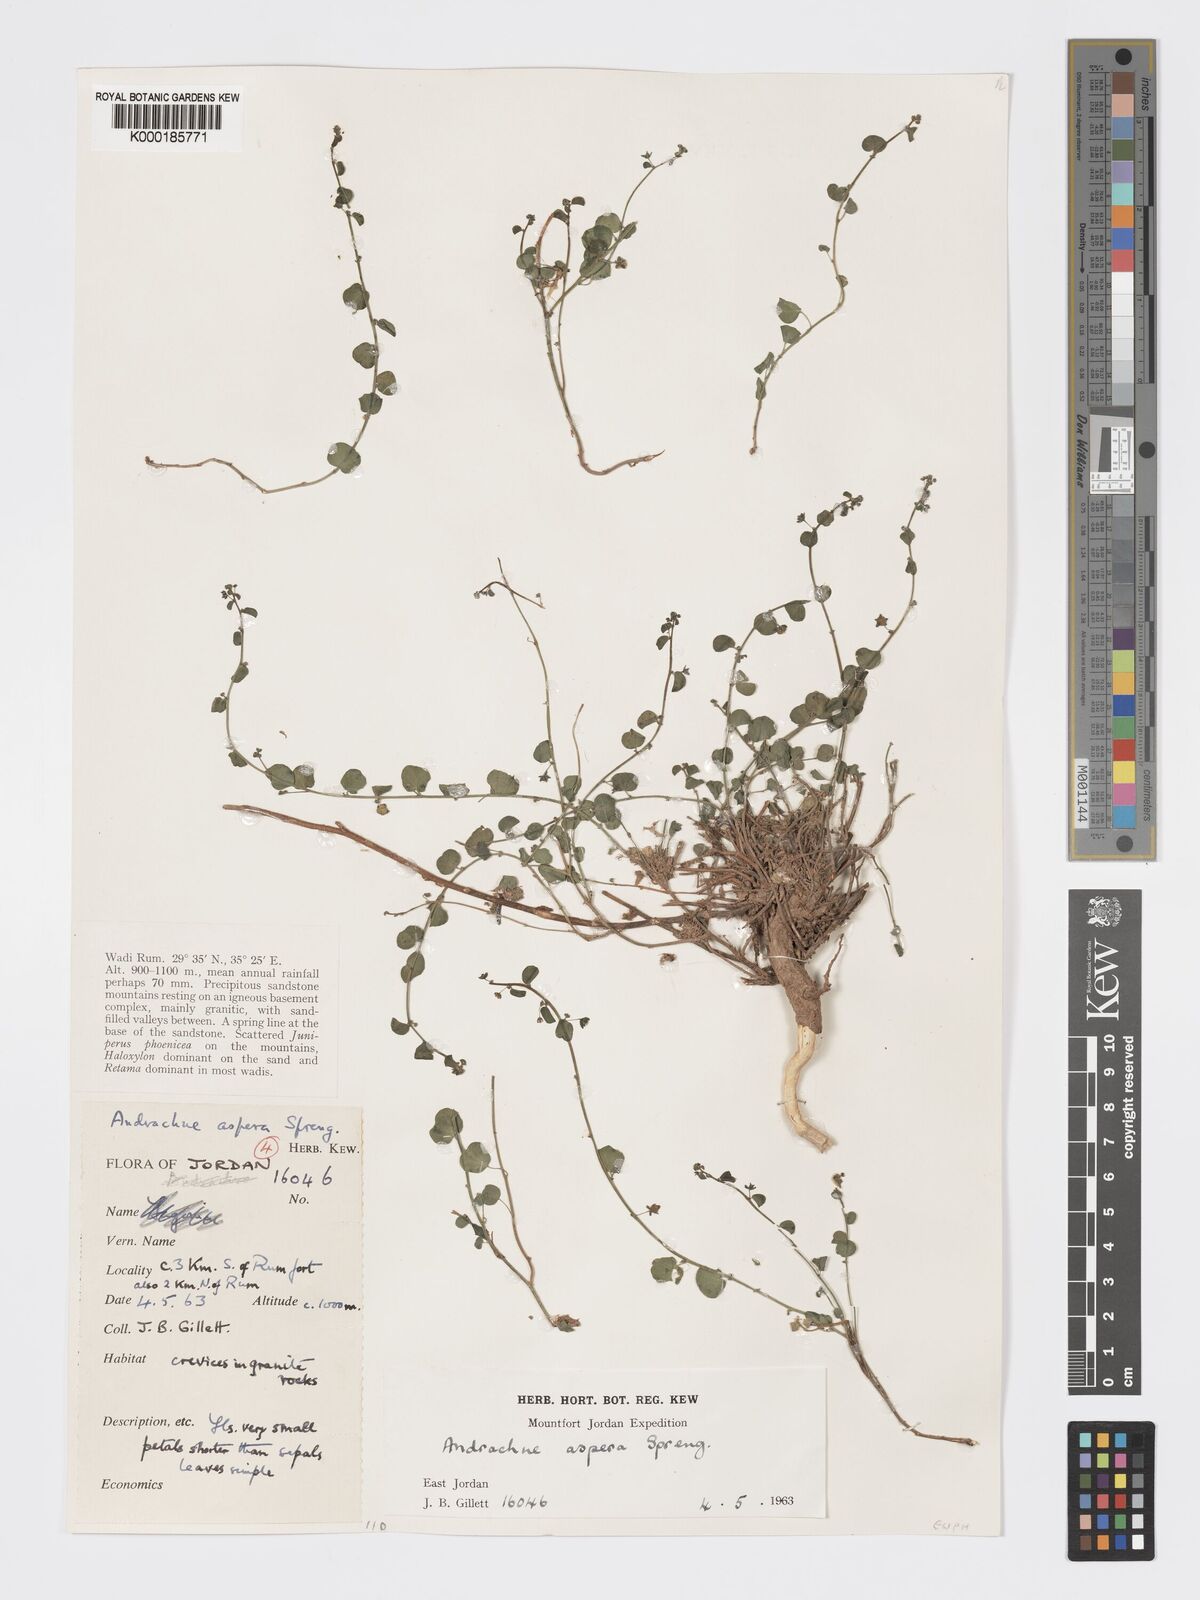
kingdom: Plantae
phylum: Tracheophyta
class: Magnoliopsida
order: Malpighiales
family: Phyllanthaceae
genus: Andrachne
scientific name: Andrachne aspera
